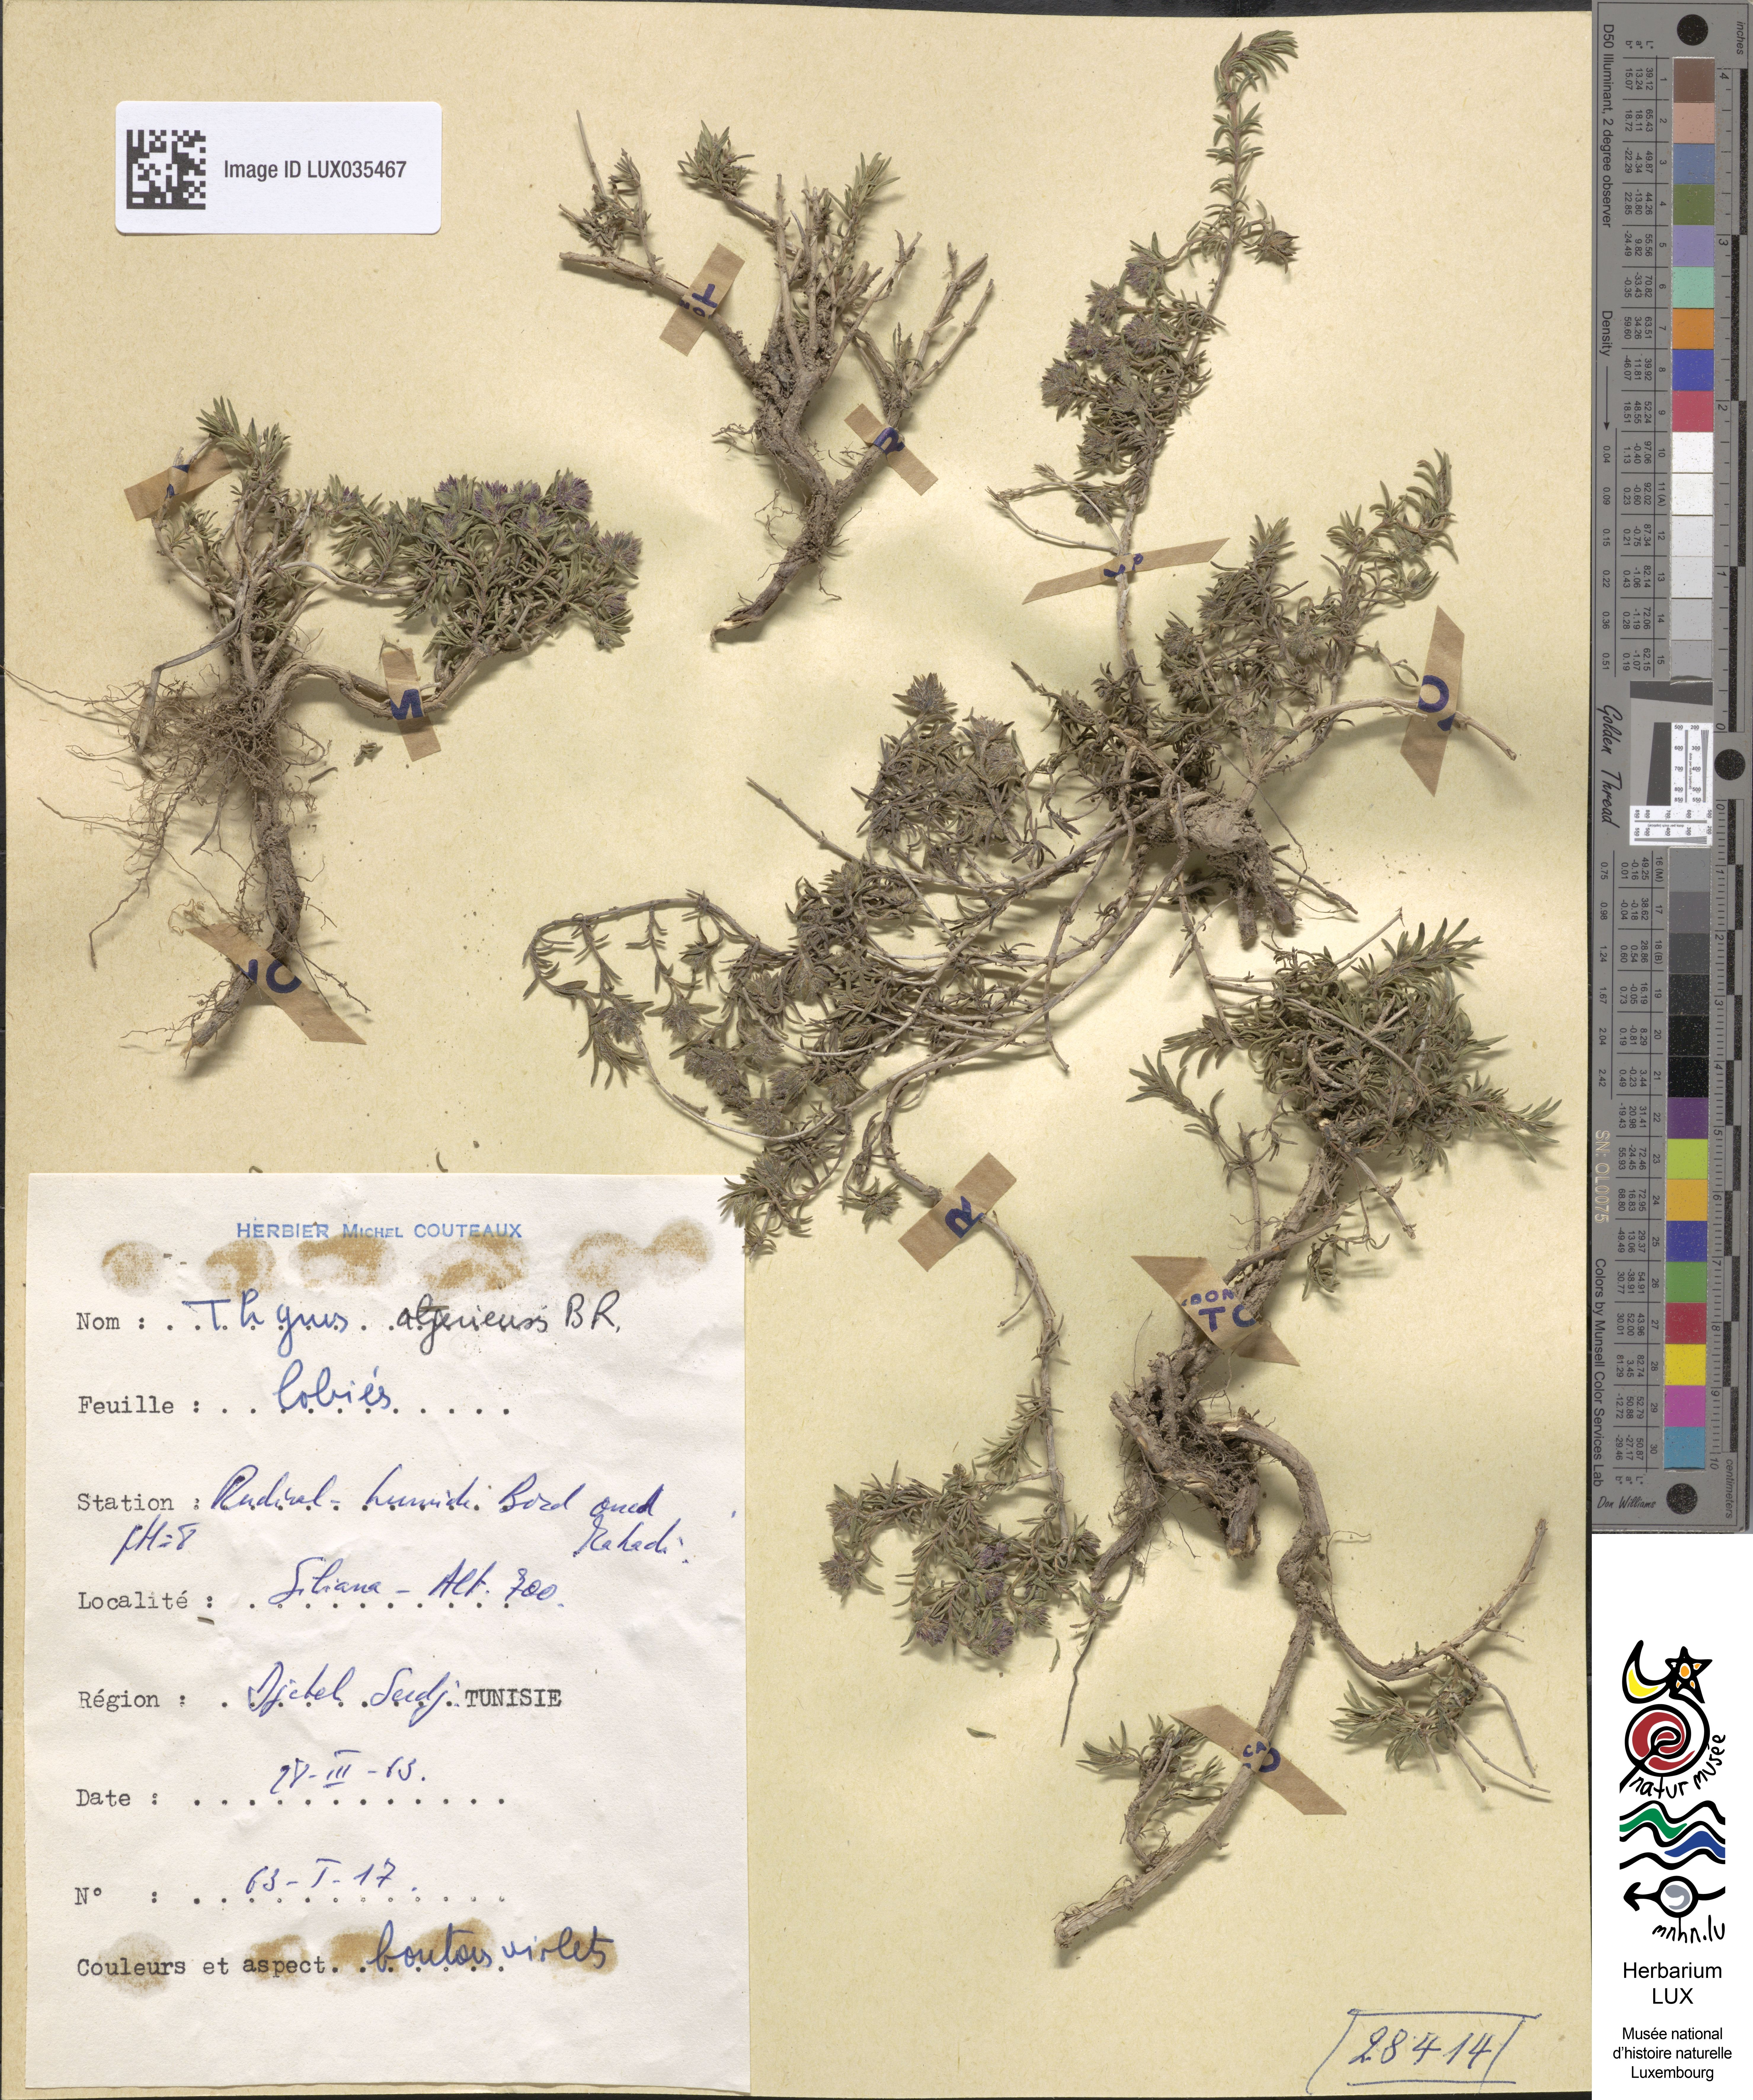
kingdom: Plantae
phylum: Tracheophyta
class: Magnoliopsida
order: Lamiales
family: Lamiaceae
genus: Thymus
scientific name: Thymus algeriensis
